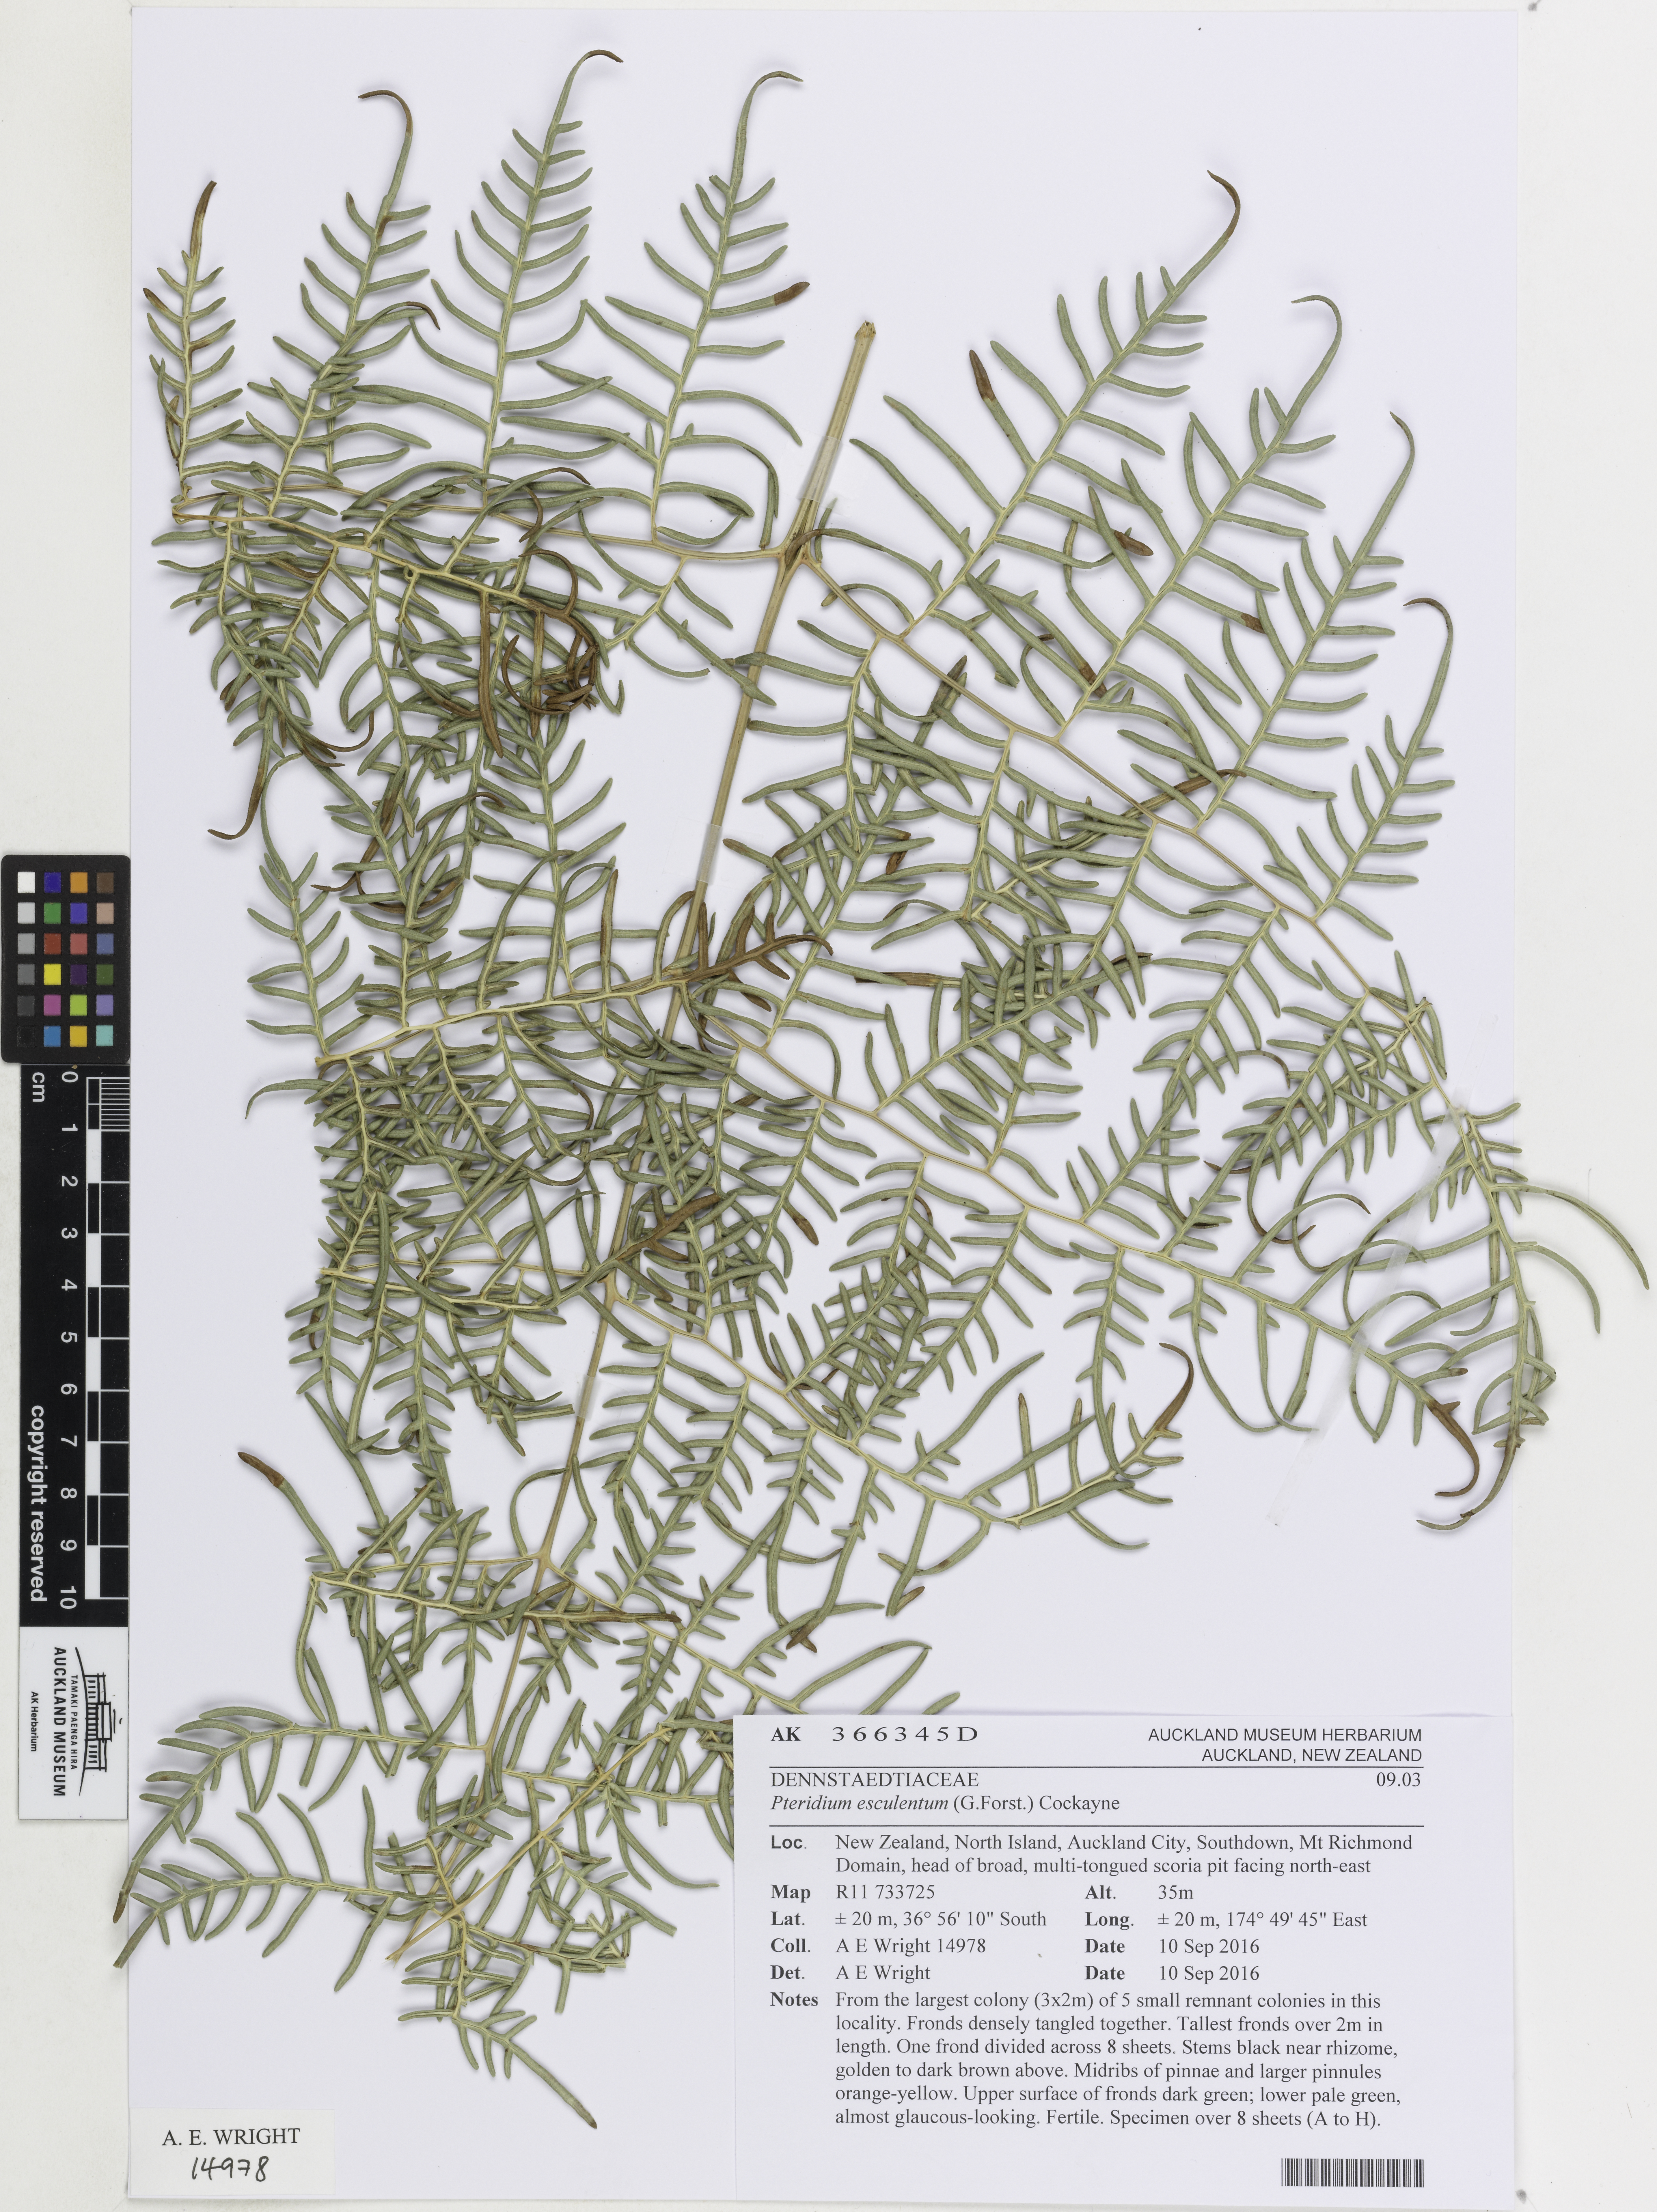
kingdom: Plantae
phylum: Tracheophyta
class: Polypodiopsida
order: Polypodiales
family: Dennstaedtiaceae
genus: Pteridium
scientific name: Pteridium esculentum
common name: Bracken fern
